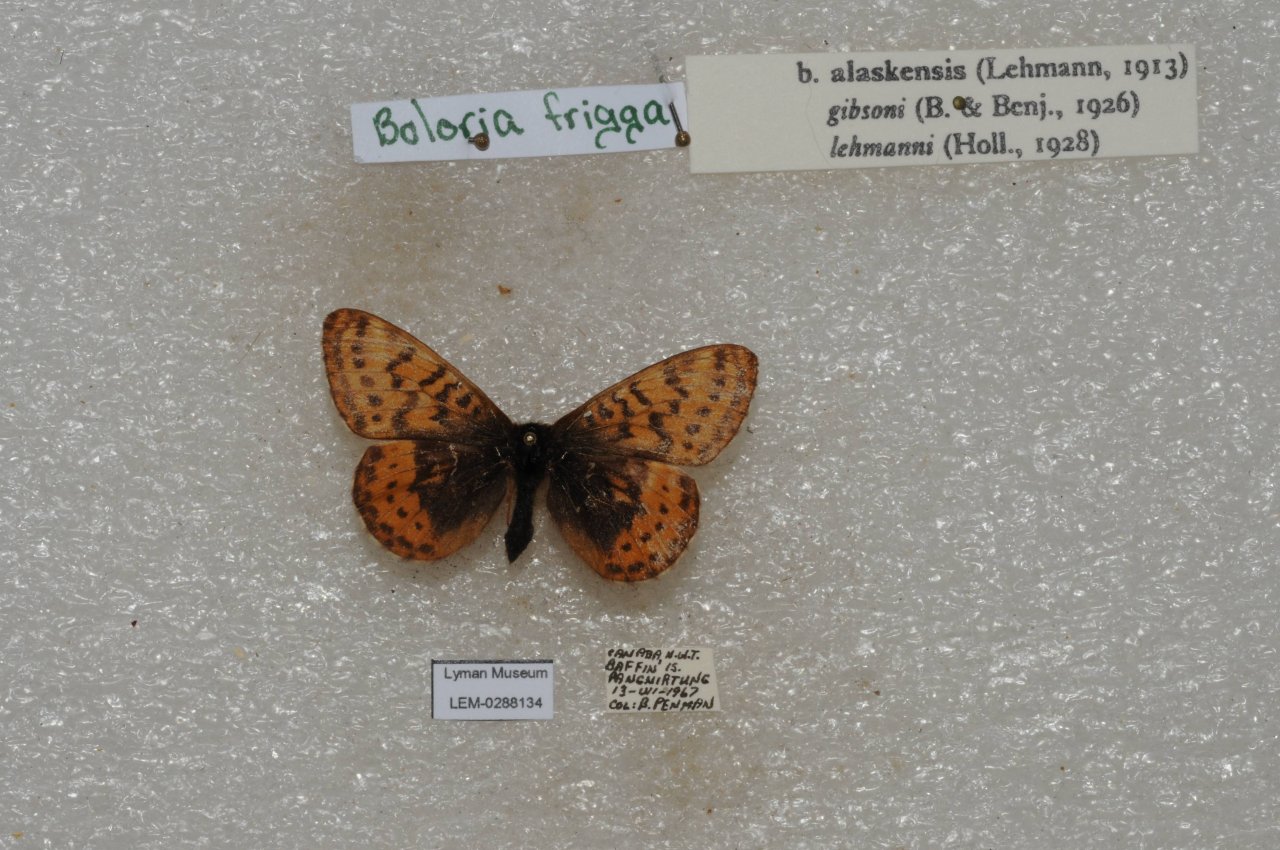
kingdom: Animalia
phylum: Arthropoda
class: Insecta
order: Lepidoptera
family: Nymphalidae
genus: Boloria
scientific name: Boloria frigga
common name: Frigga Fritillary
